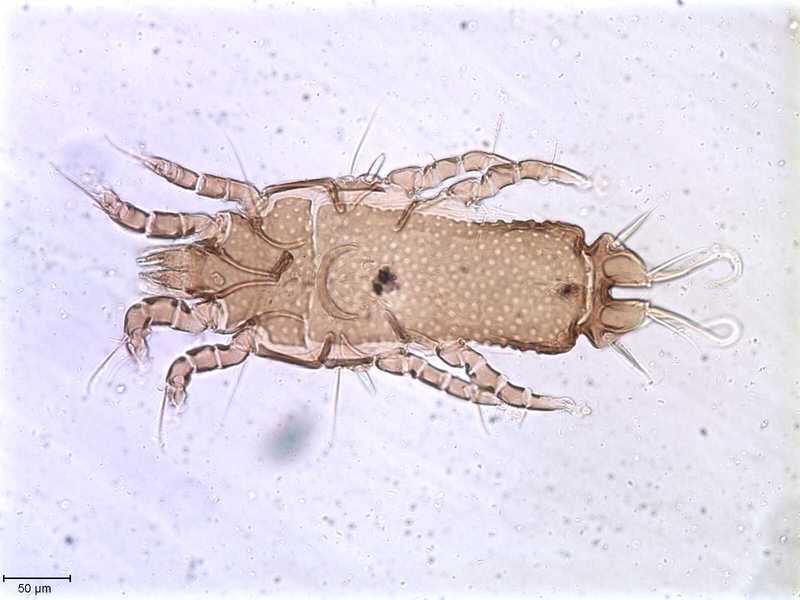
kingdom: Animalia
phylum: Arthropoda
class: Arachnida
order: Sarcoptiformes
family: Proctophyllodidae
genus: Proctophyllodes
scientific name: Proctophyllodes habiae
